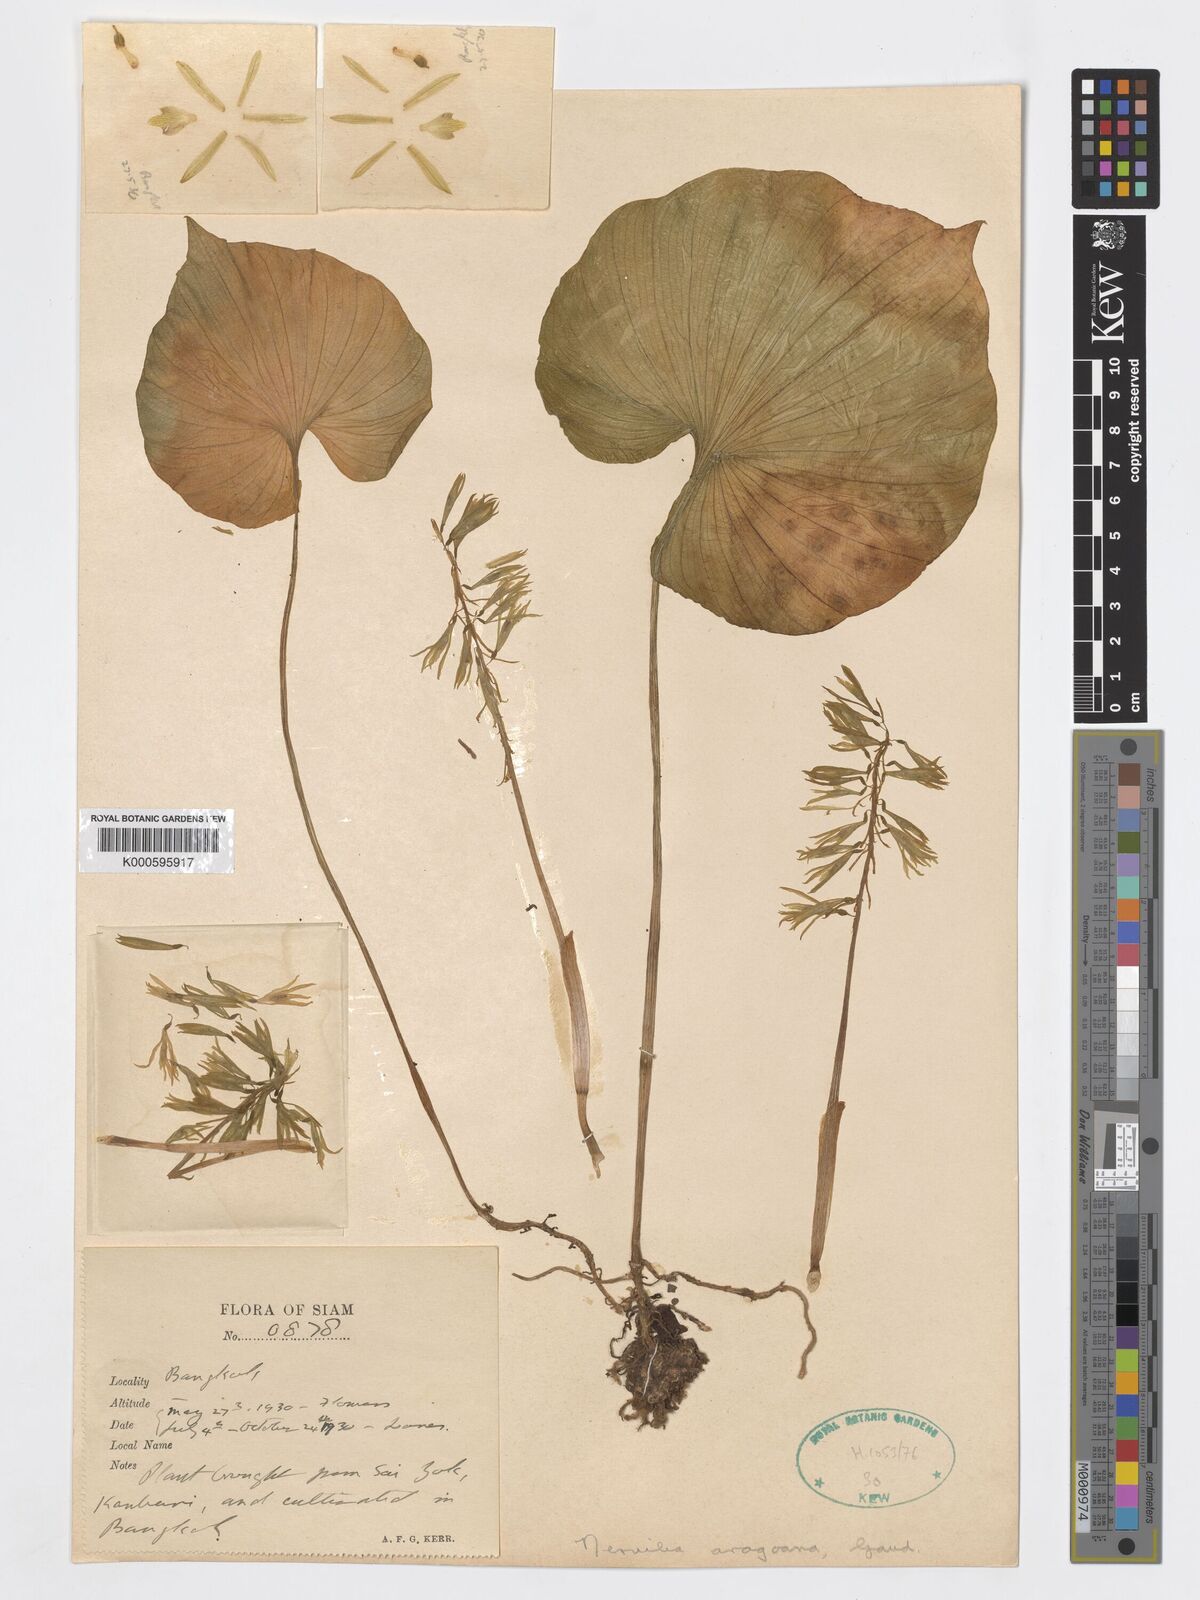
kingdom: Plantae
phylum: Tracheophyta
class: Liliopsida
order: Asparagales
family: Orchidaceae
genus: Nervilia
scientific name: Nervilia concolor
